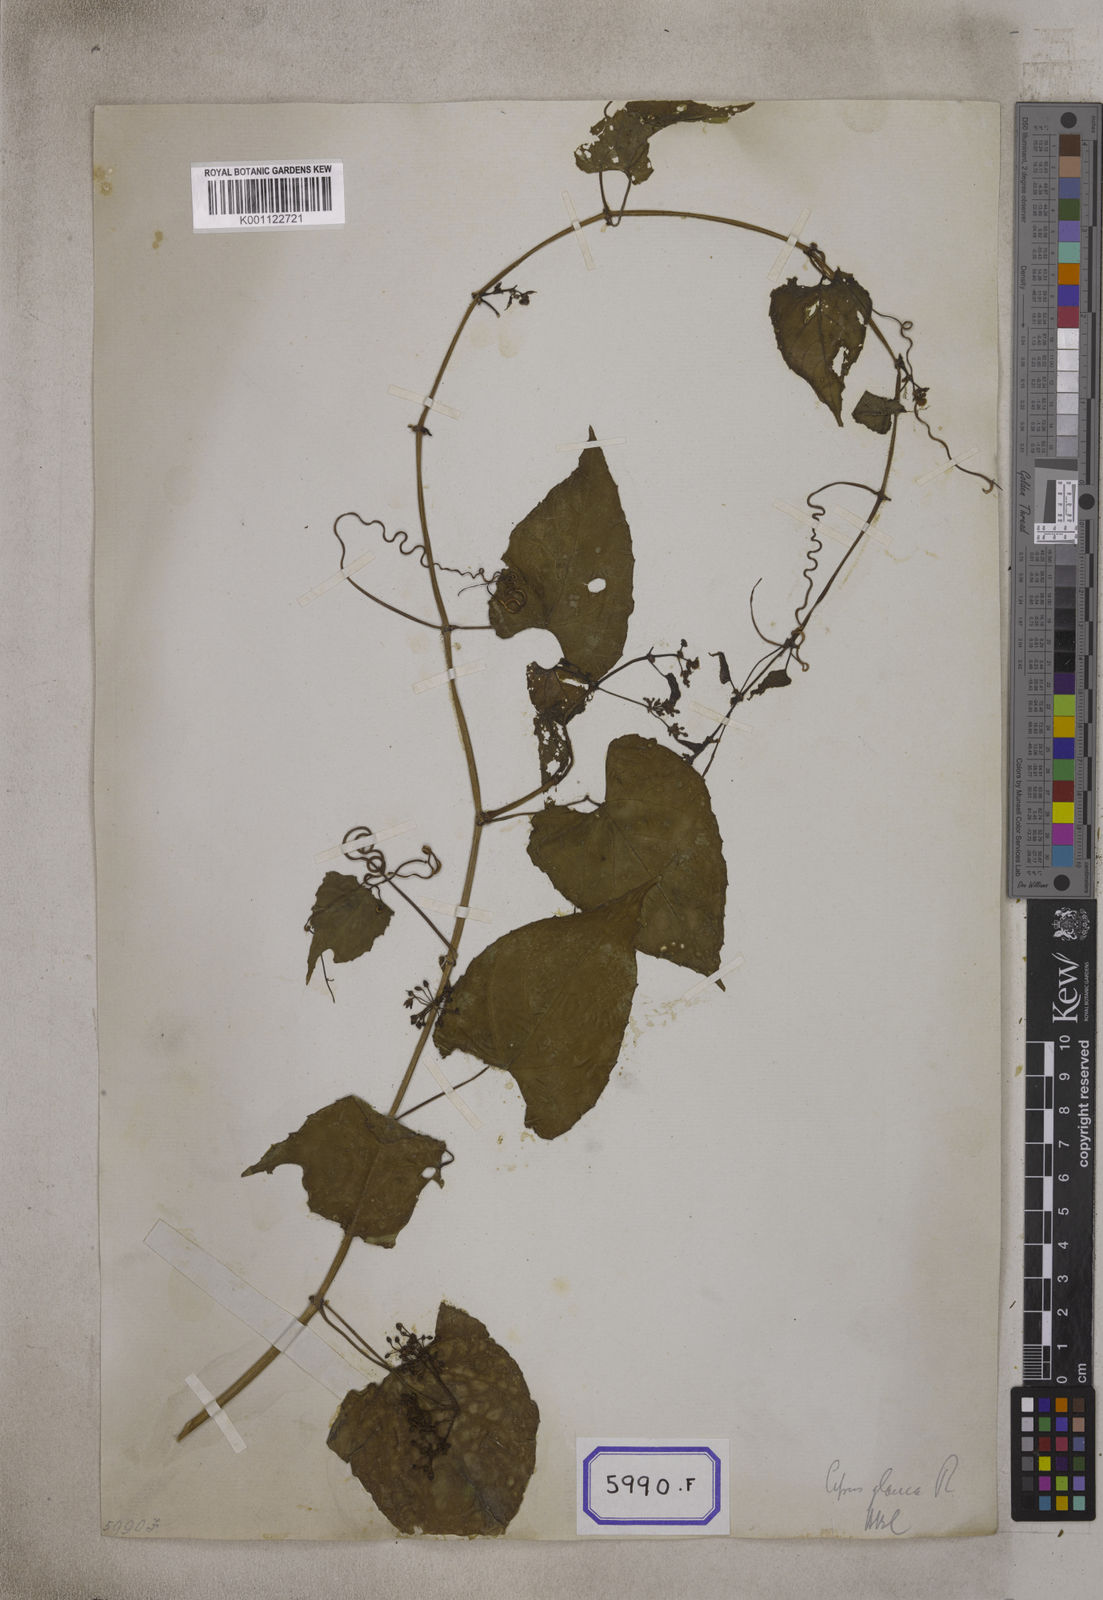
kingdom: Plantae
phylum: Tracheophyta
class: Magnoliopsida
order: Vitales
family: Vitaceae
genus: Cissus
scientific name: Cissus repens
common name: Cissus
